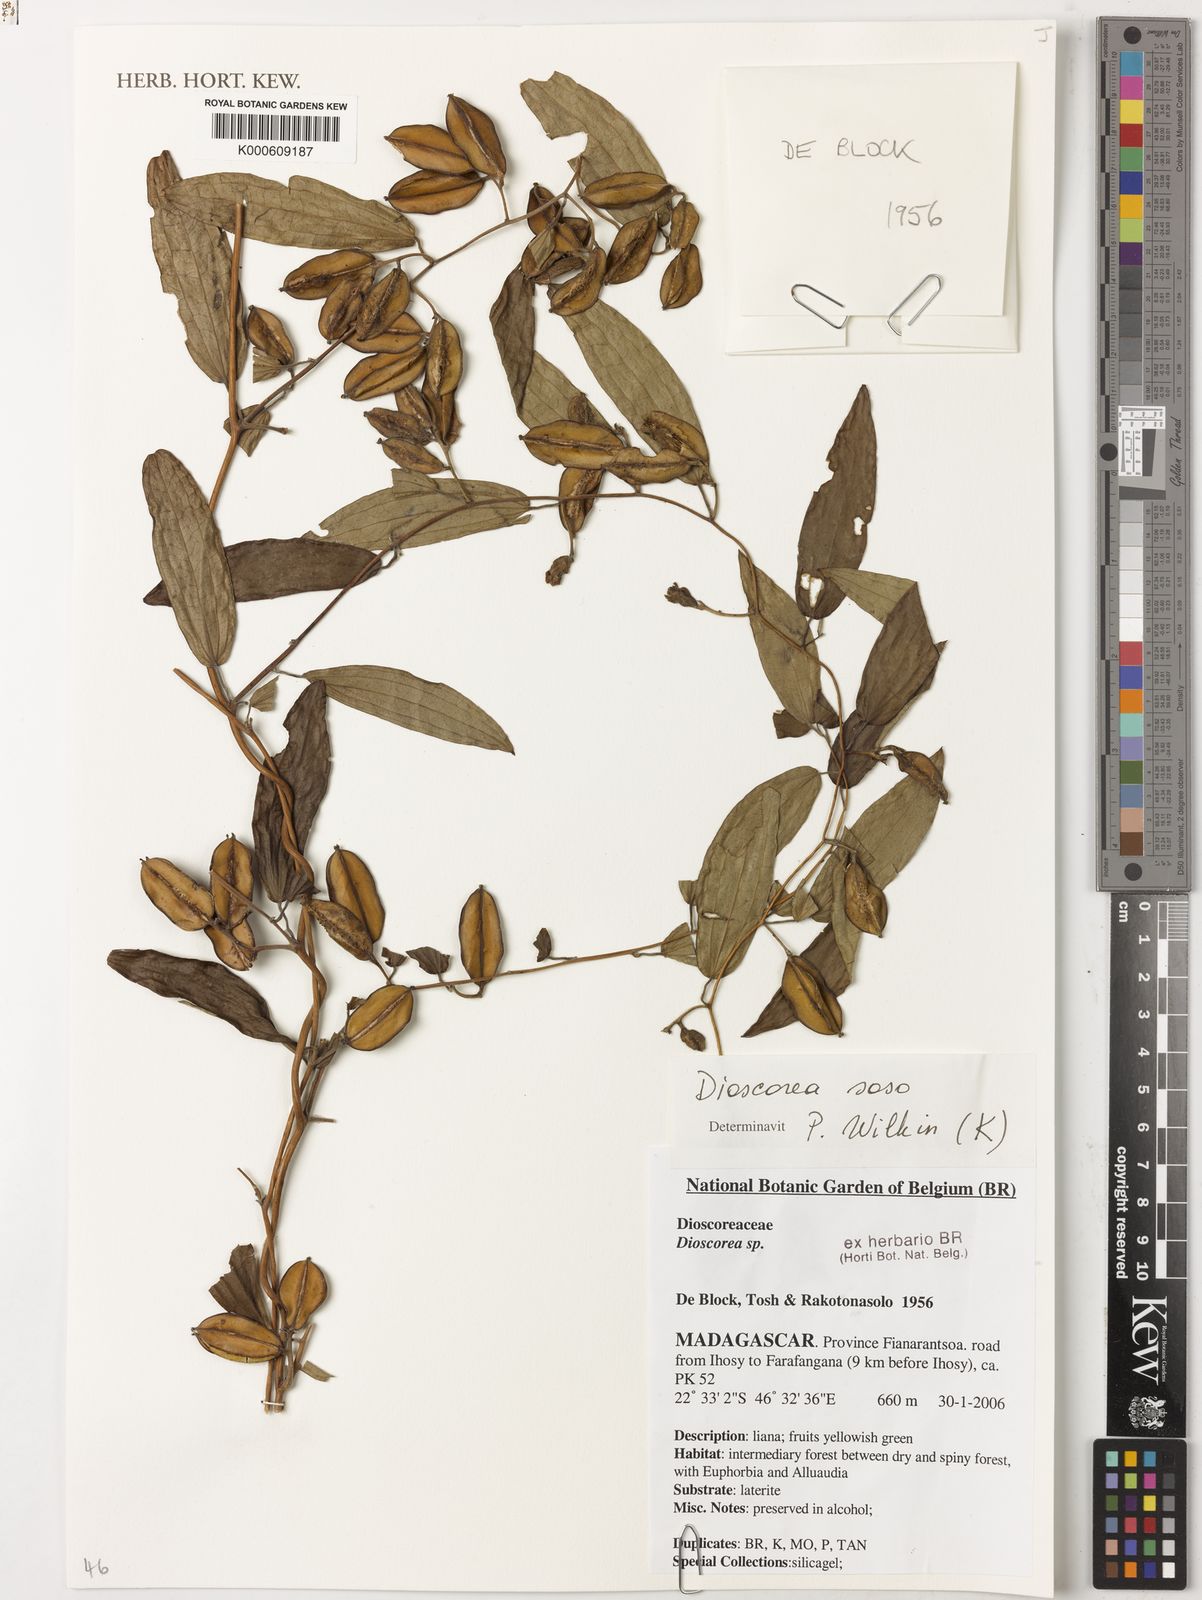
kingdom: Plantae
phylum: Tracheophyta
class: Liliopsida
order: Dioscoreales
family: Dioscoreaceae
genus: Dioscorea
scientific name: Dioscorea soso
